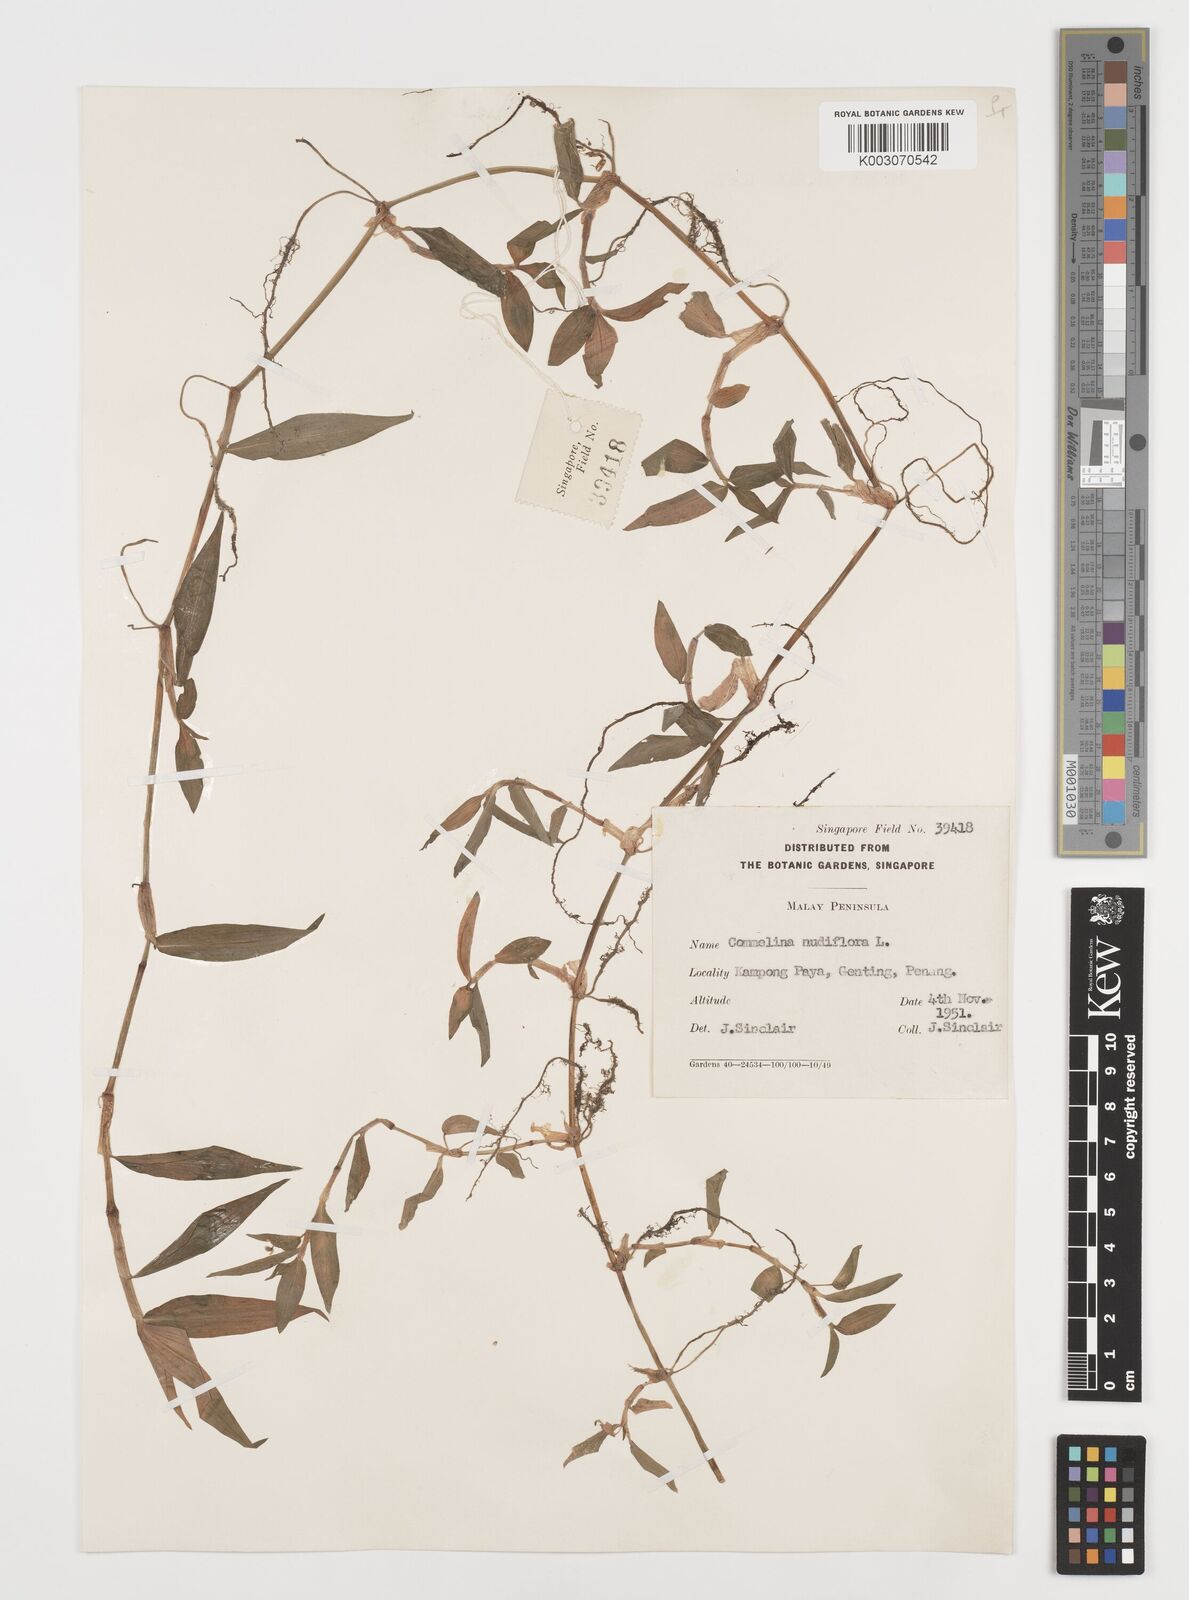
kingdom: Plantae
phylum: Tracheophyta
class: Liliopsida
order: Commelinales
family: Commelinaceae
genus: Commelina
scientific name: Commelina clavata
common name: Willow leaved dayflower
